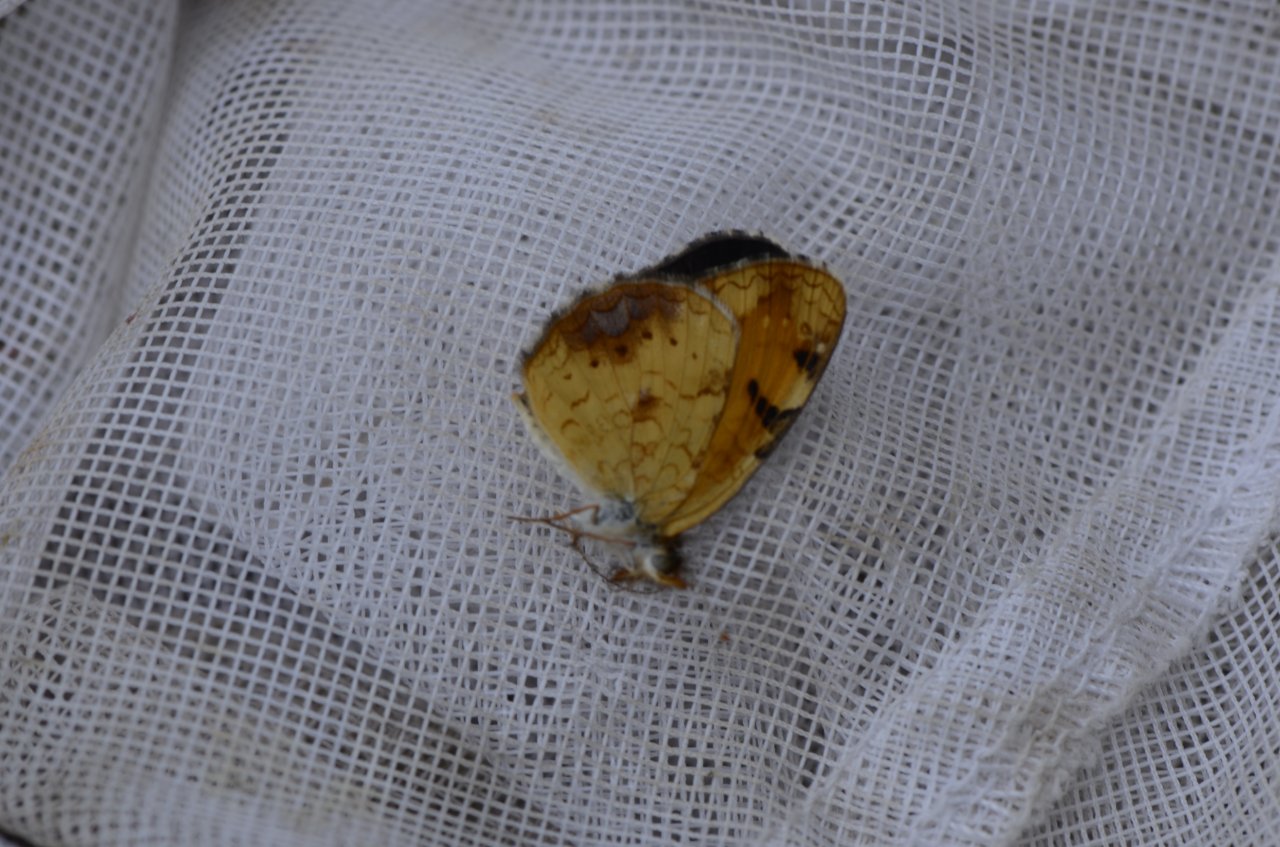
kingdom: Animalia
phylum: Arthropoda
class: Insecta
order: Lepidoptera
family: Nymphalidae
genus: Phyciodes
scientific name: Phyciodes tharos
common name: Northern Crescent
